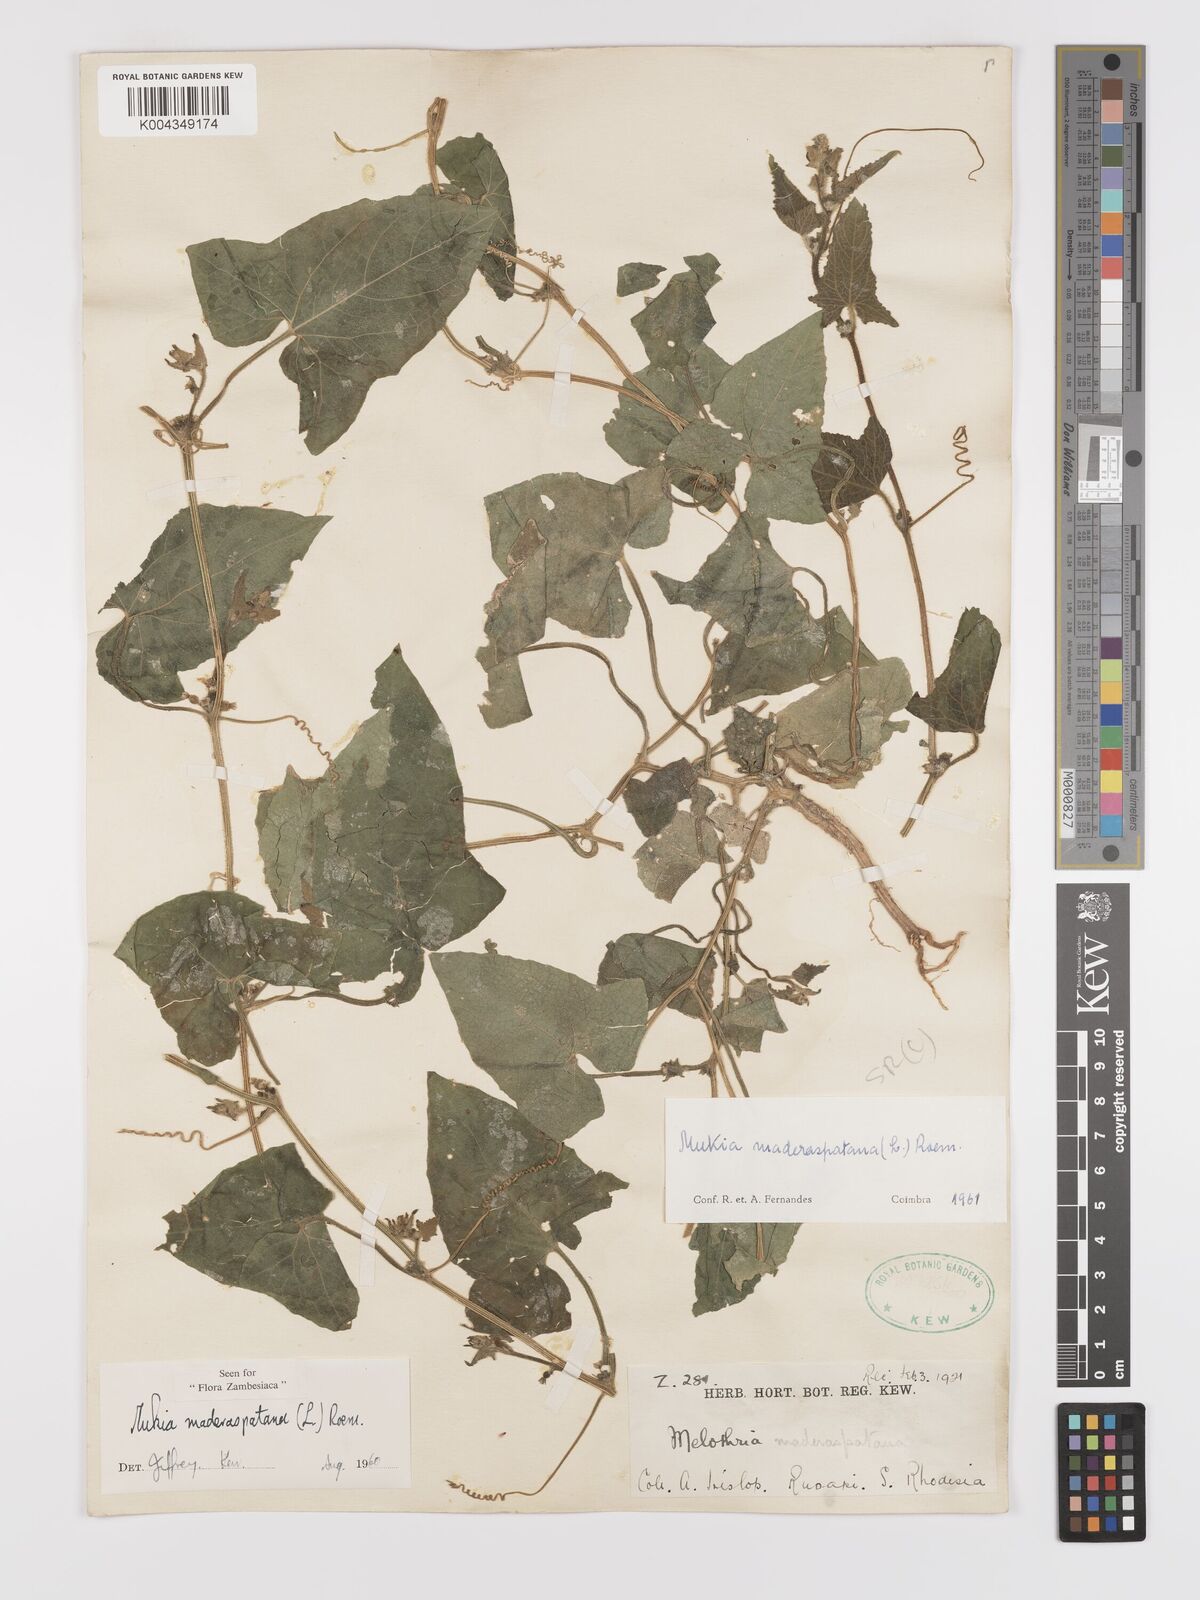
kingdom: Plantae
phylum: Tracheophyta
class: Magnoliopsida
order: Cucurbitales
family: Cucurbitaceae
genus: Cucumis
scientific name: Cucumis maderaspatanus
